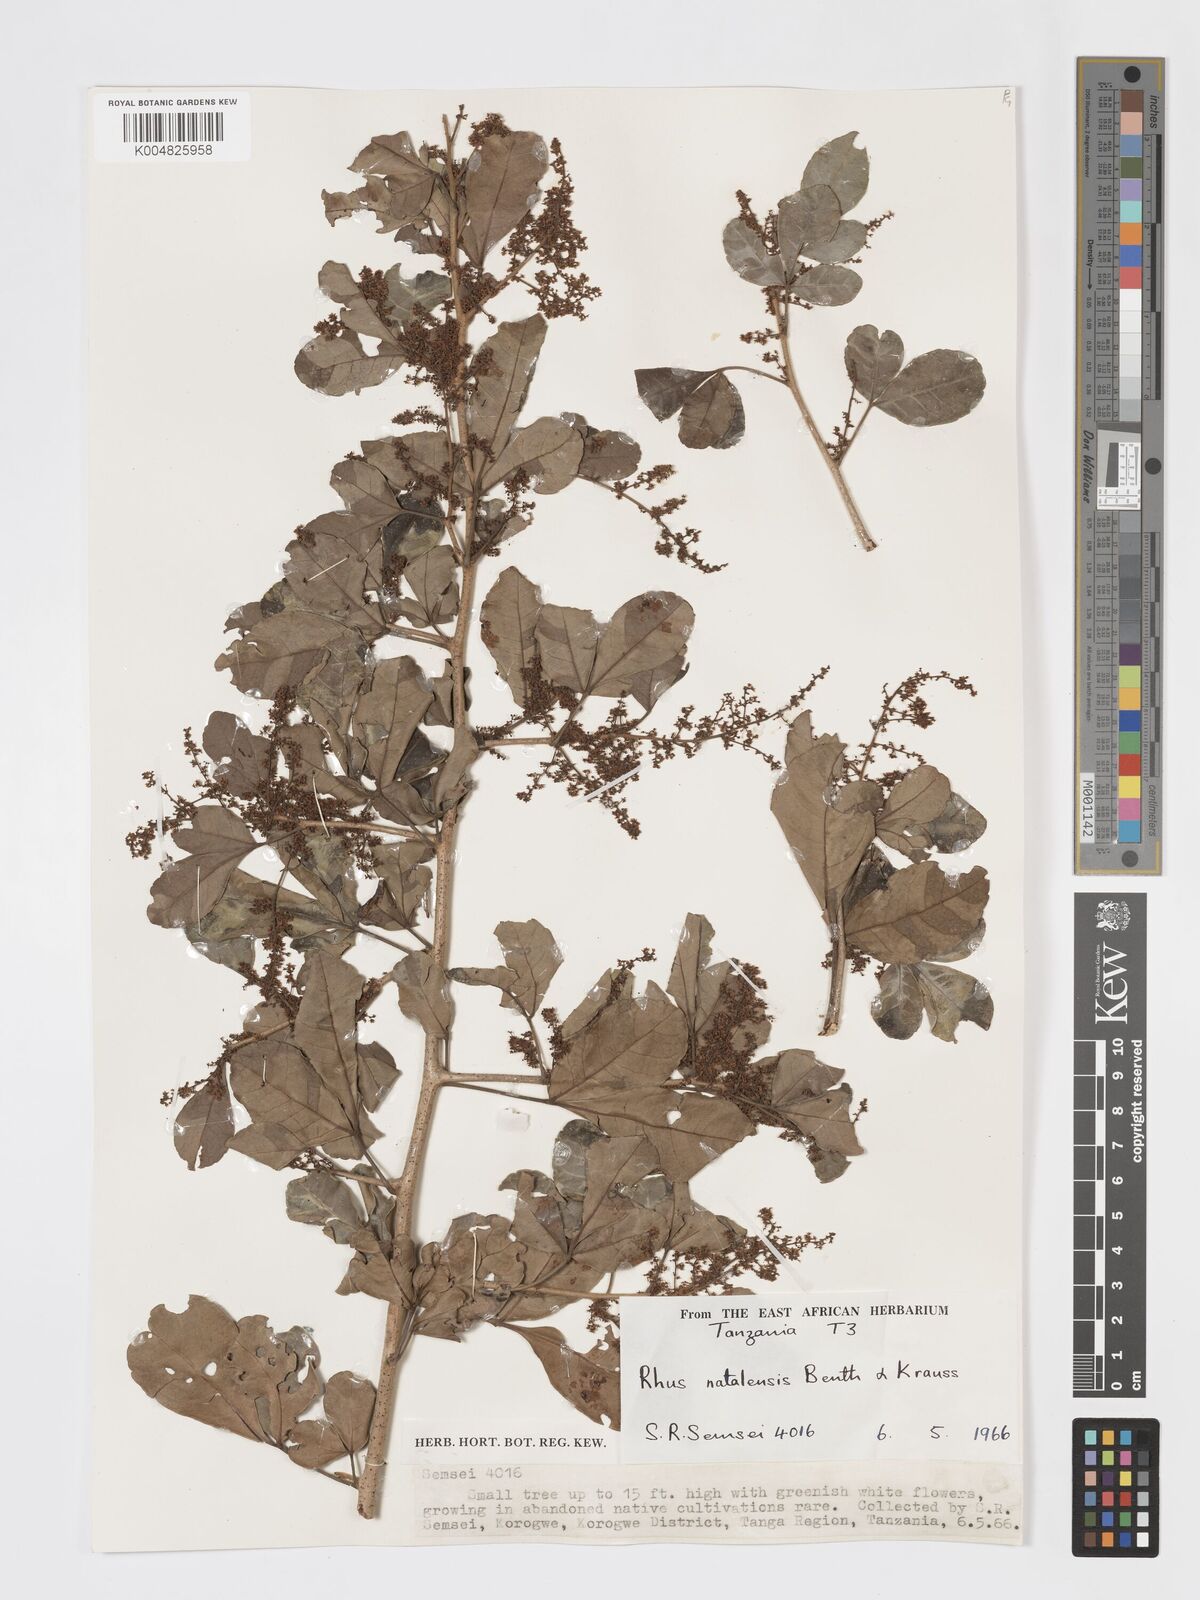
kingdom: Plantae
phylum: Tracheophyta
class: Magnoliopsida
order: Sapindales
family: Anacardiaceae
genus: Searsia
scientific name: Searsia natalensis
